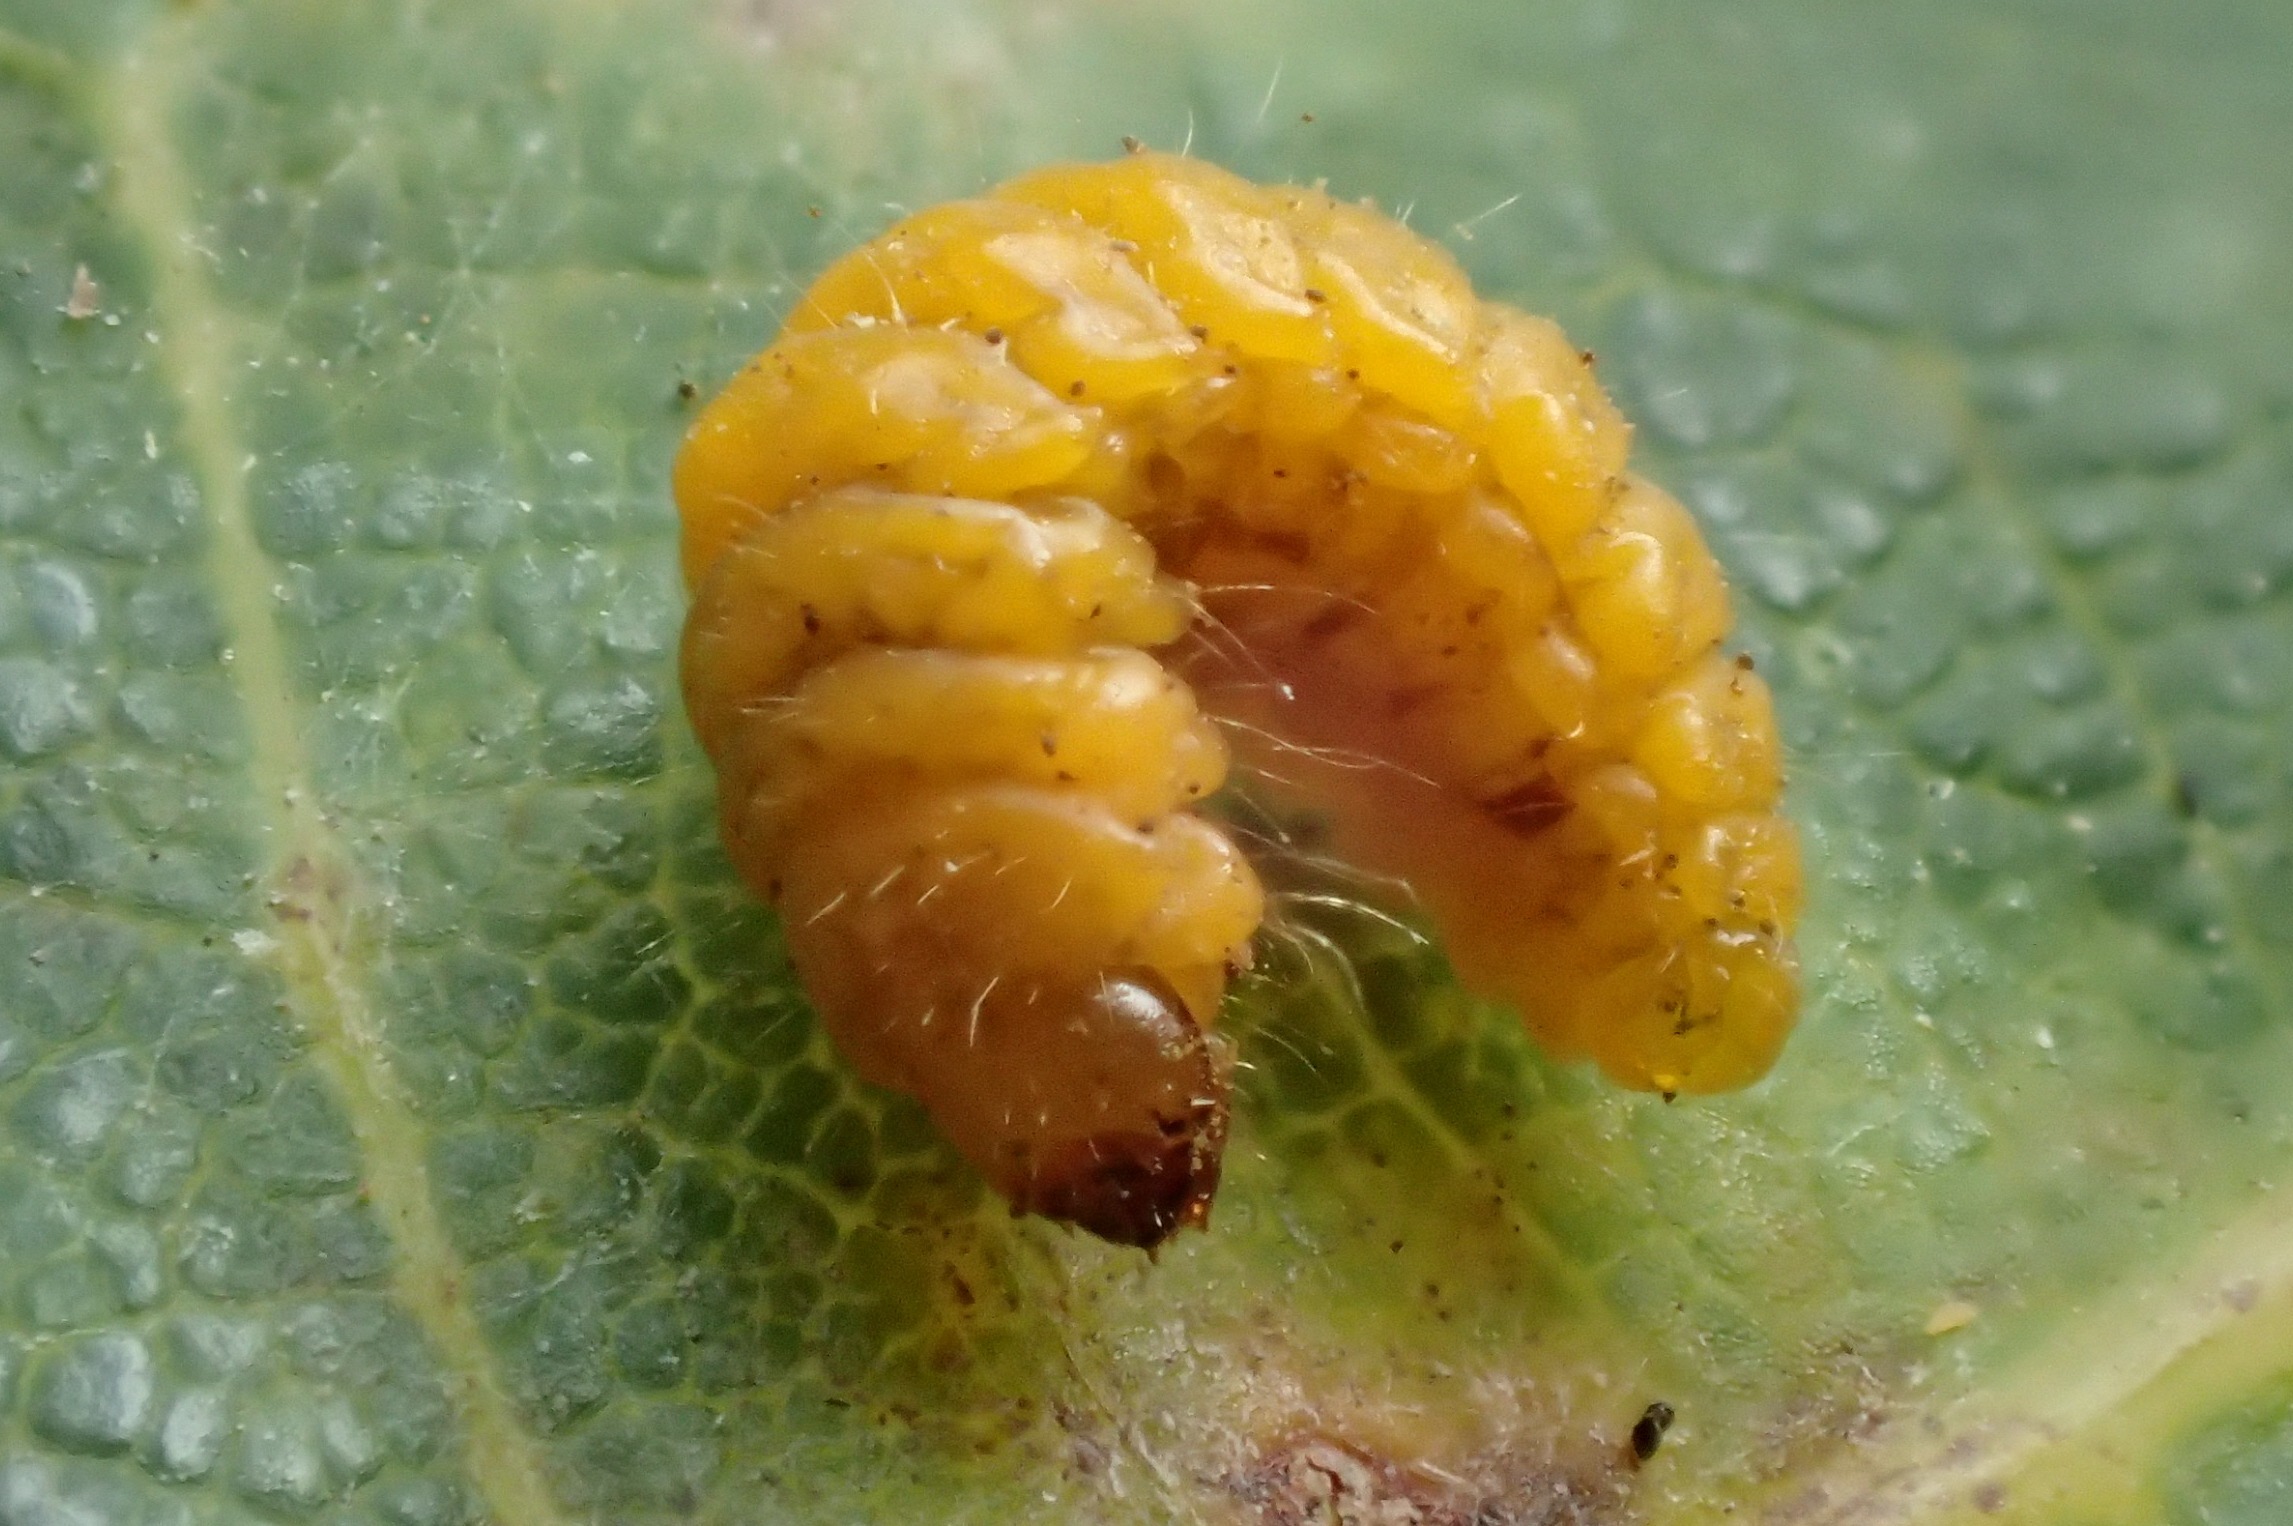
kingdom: Animalia
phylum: Arthropoda
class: Insecta
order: Coleoptera
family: Attelabidae
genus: Attelabus
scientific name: Attelabus nitens
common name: Egebladruller
